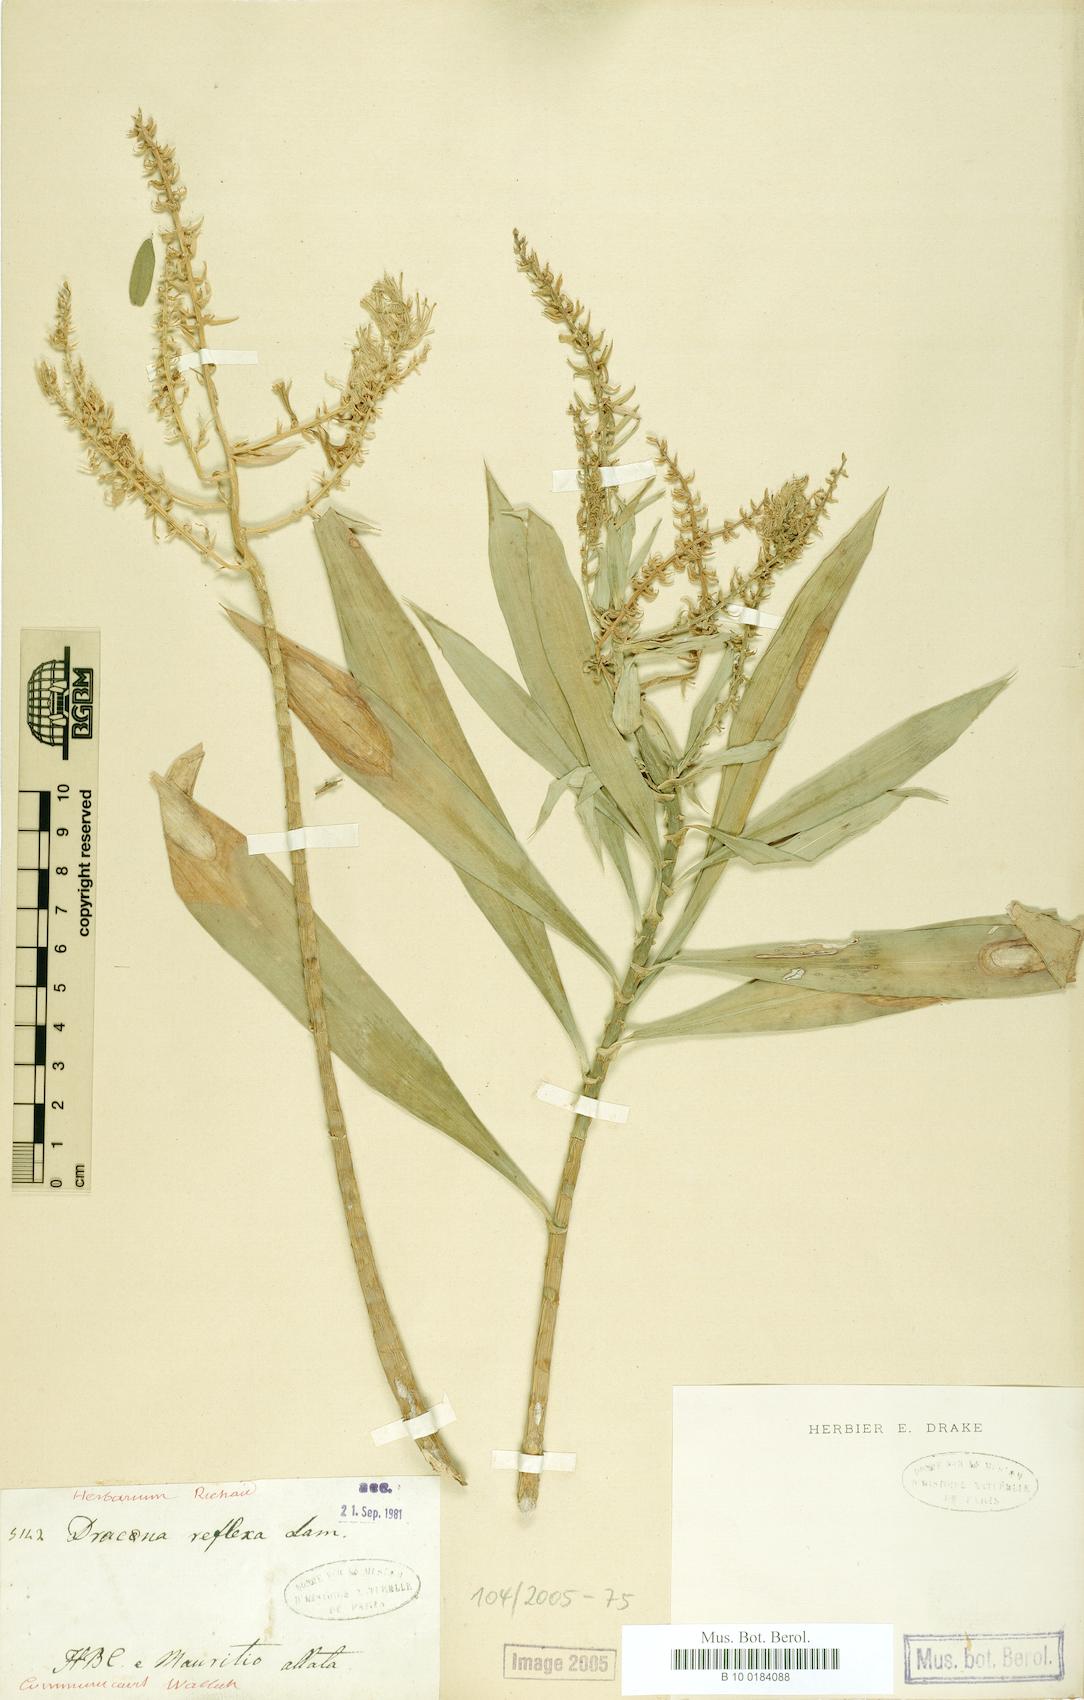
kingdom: Plantae
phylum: Tracheophyta
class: Liliopsida
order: Asparagales
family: Asparagaceae
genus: Dracaena
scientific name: Dracaena reflexa
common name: Song-of-india
